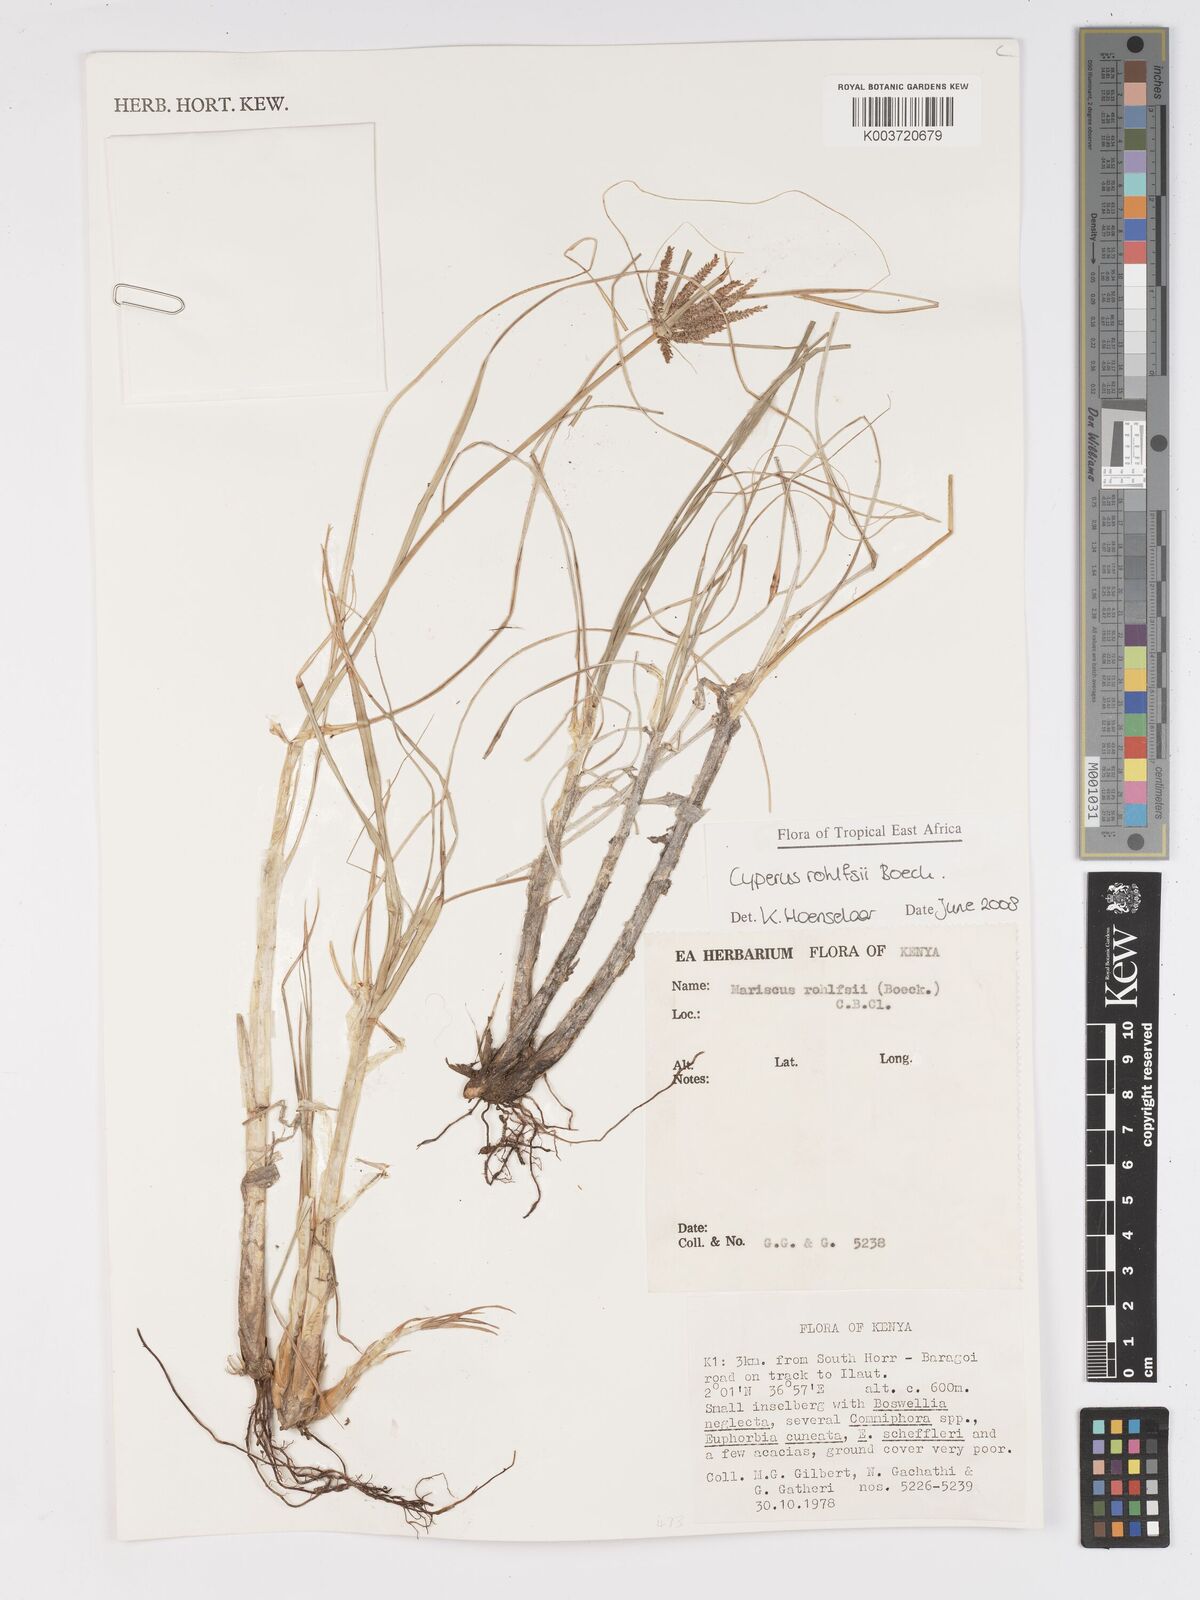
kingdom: Plantae
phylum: Tracheophyta
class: Liliopsida
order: Poales
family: Cyperaceae
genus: Cyperus
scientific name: Cyperus rohlfsii
